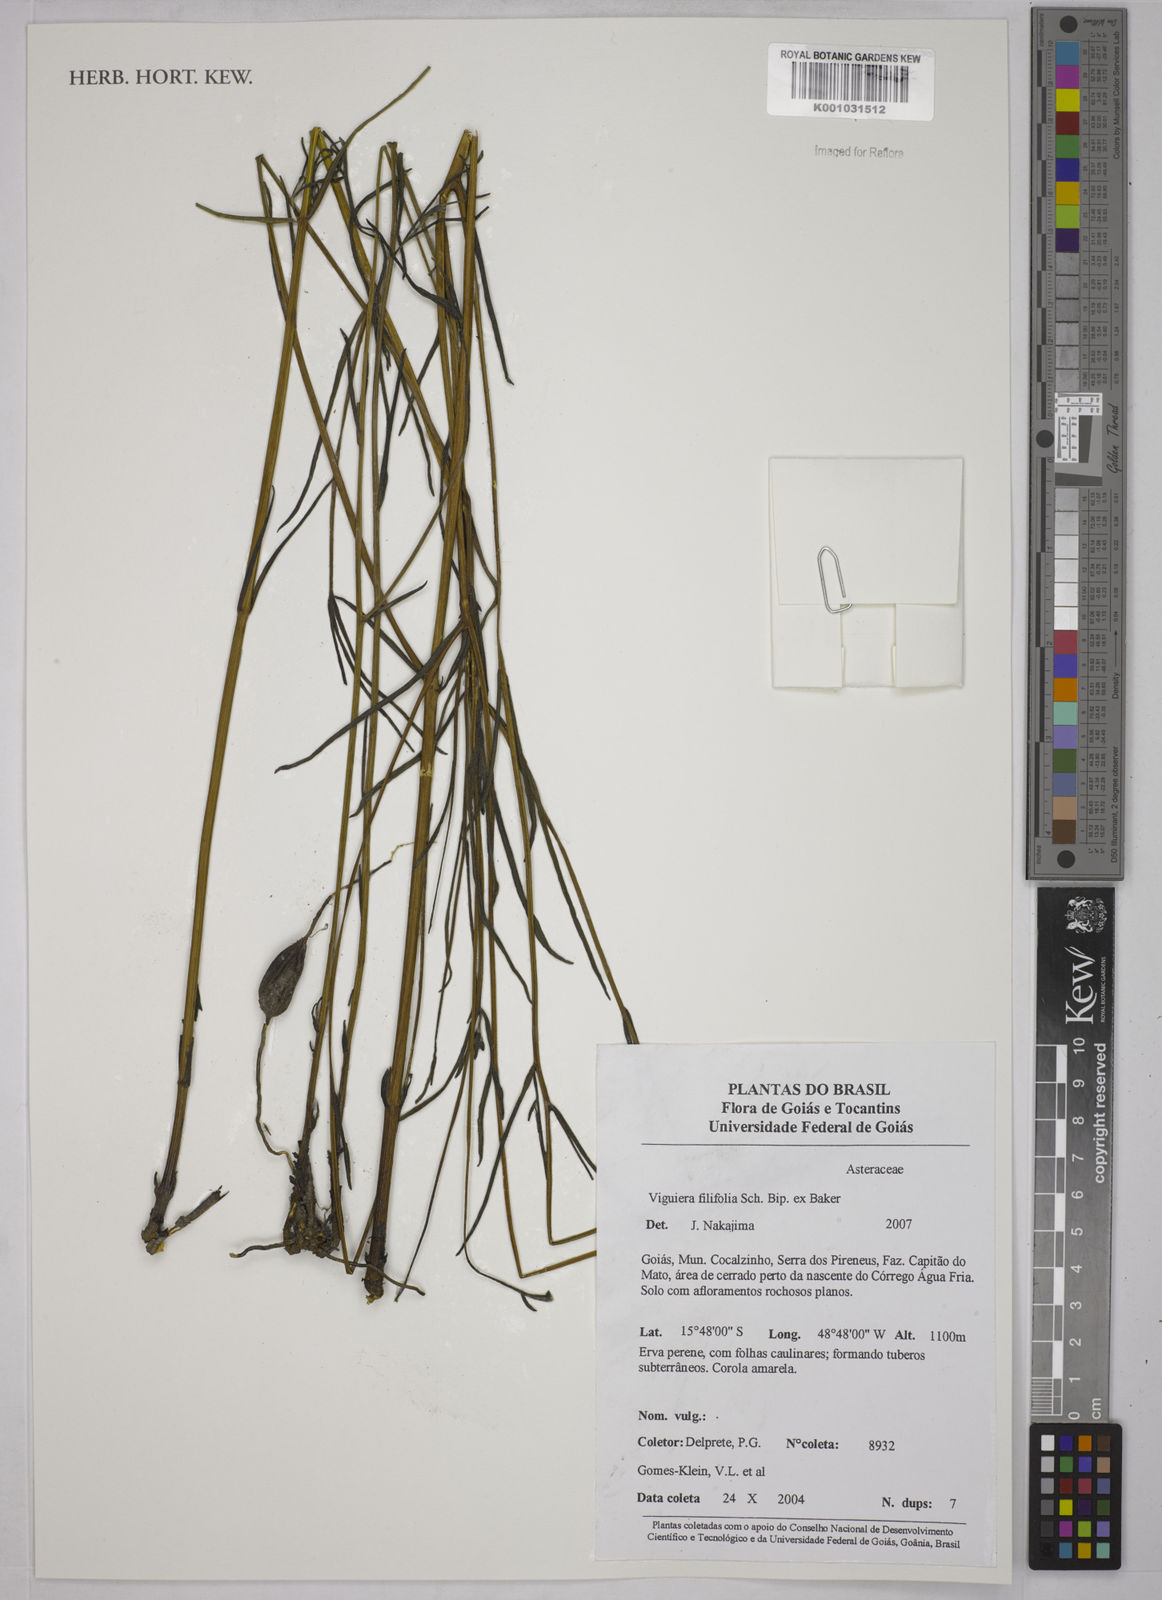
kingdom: Plantae
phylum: Tracheophyta
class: Magnoliopsida
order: Asterales
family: Asteraceae
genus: Aldama
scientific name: Aldama filifolia
